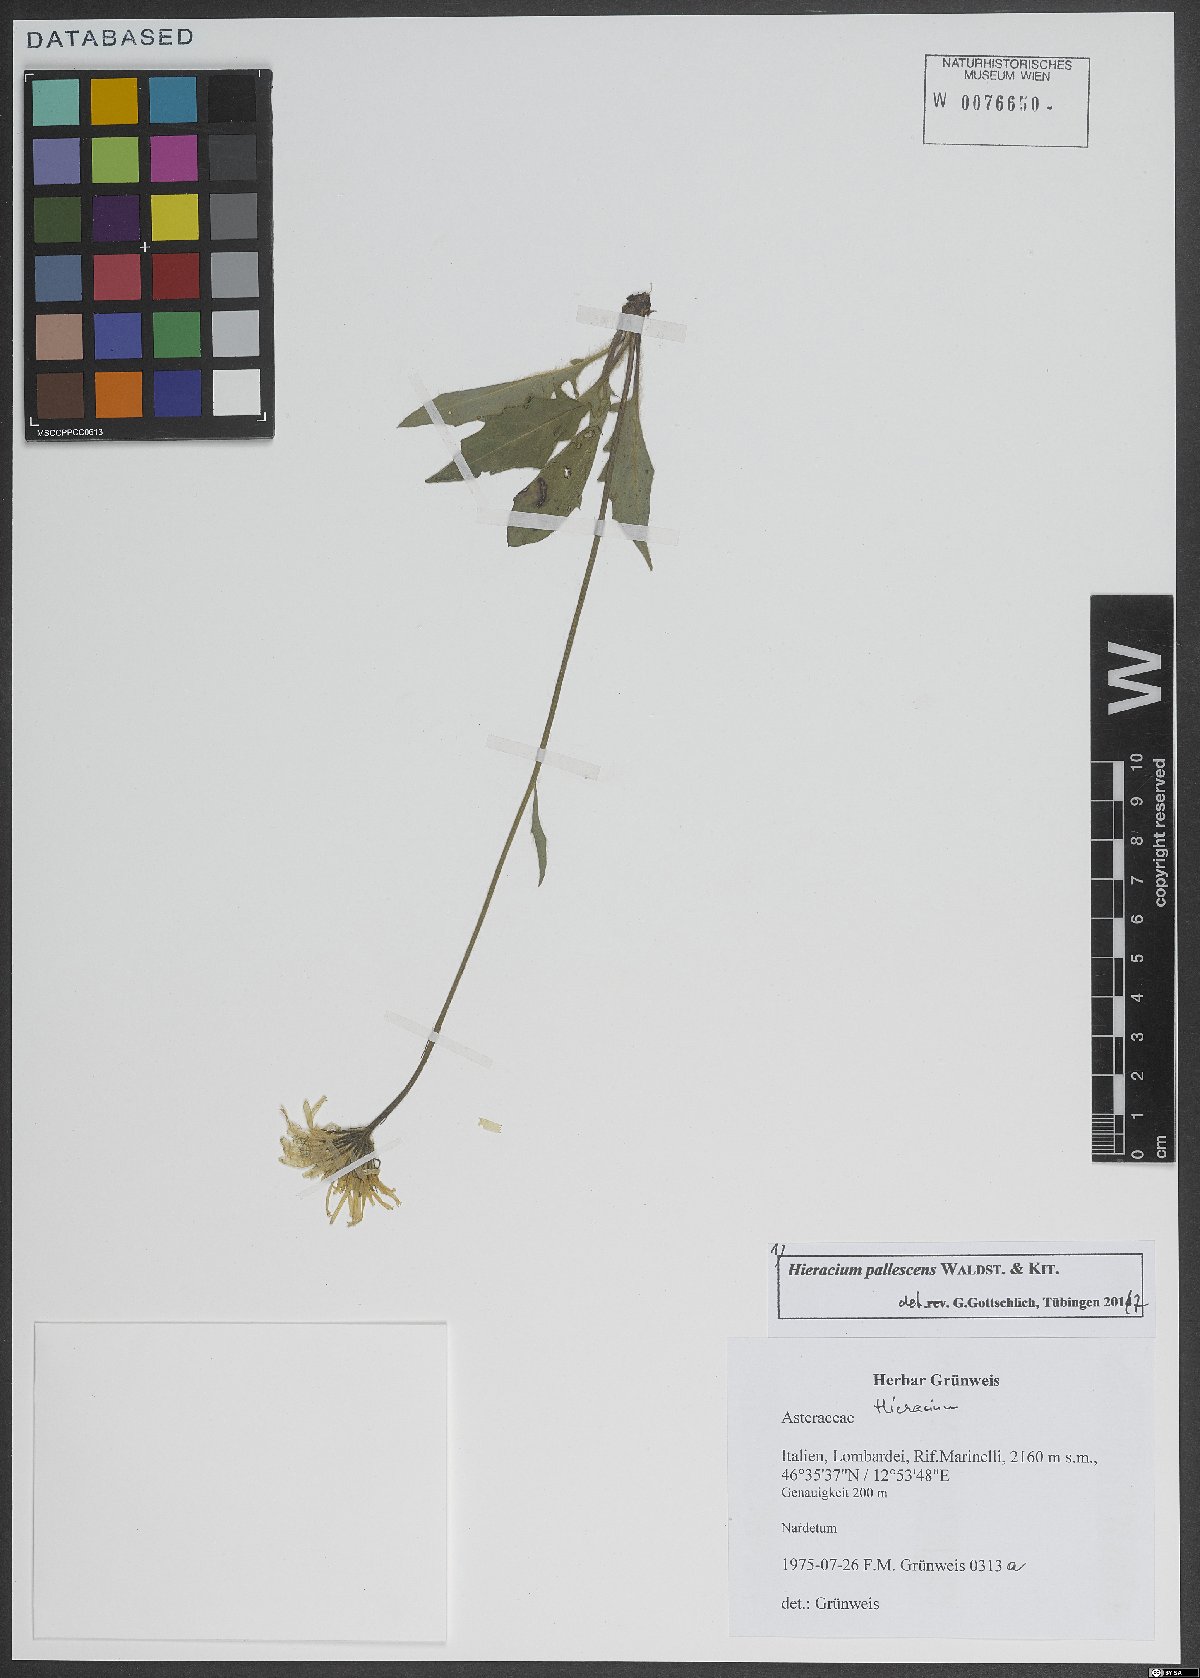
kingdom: Plantae
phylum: Tracheophyta
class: Magnoliopsida
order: Asterales
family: Asteraceae
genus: Hieracium
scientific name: Hieracium pallescens
